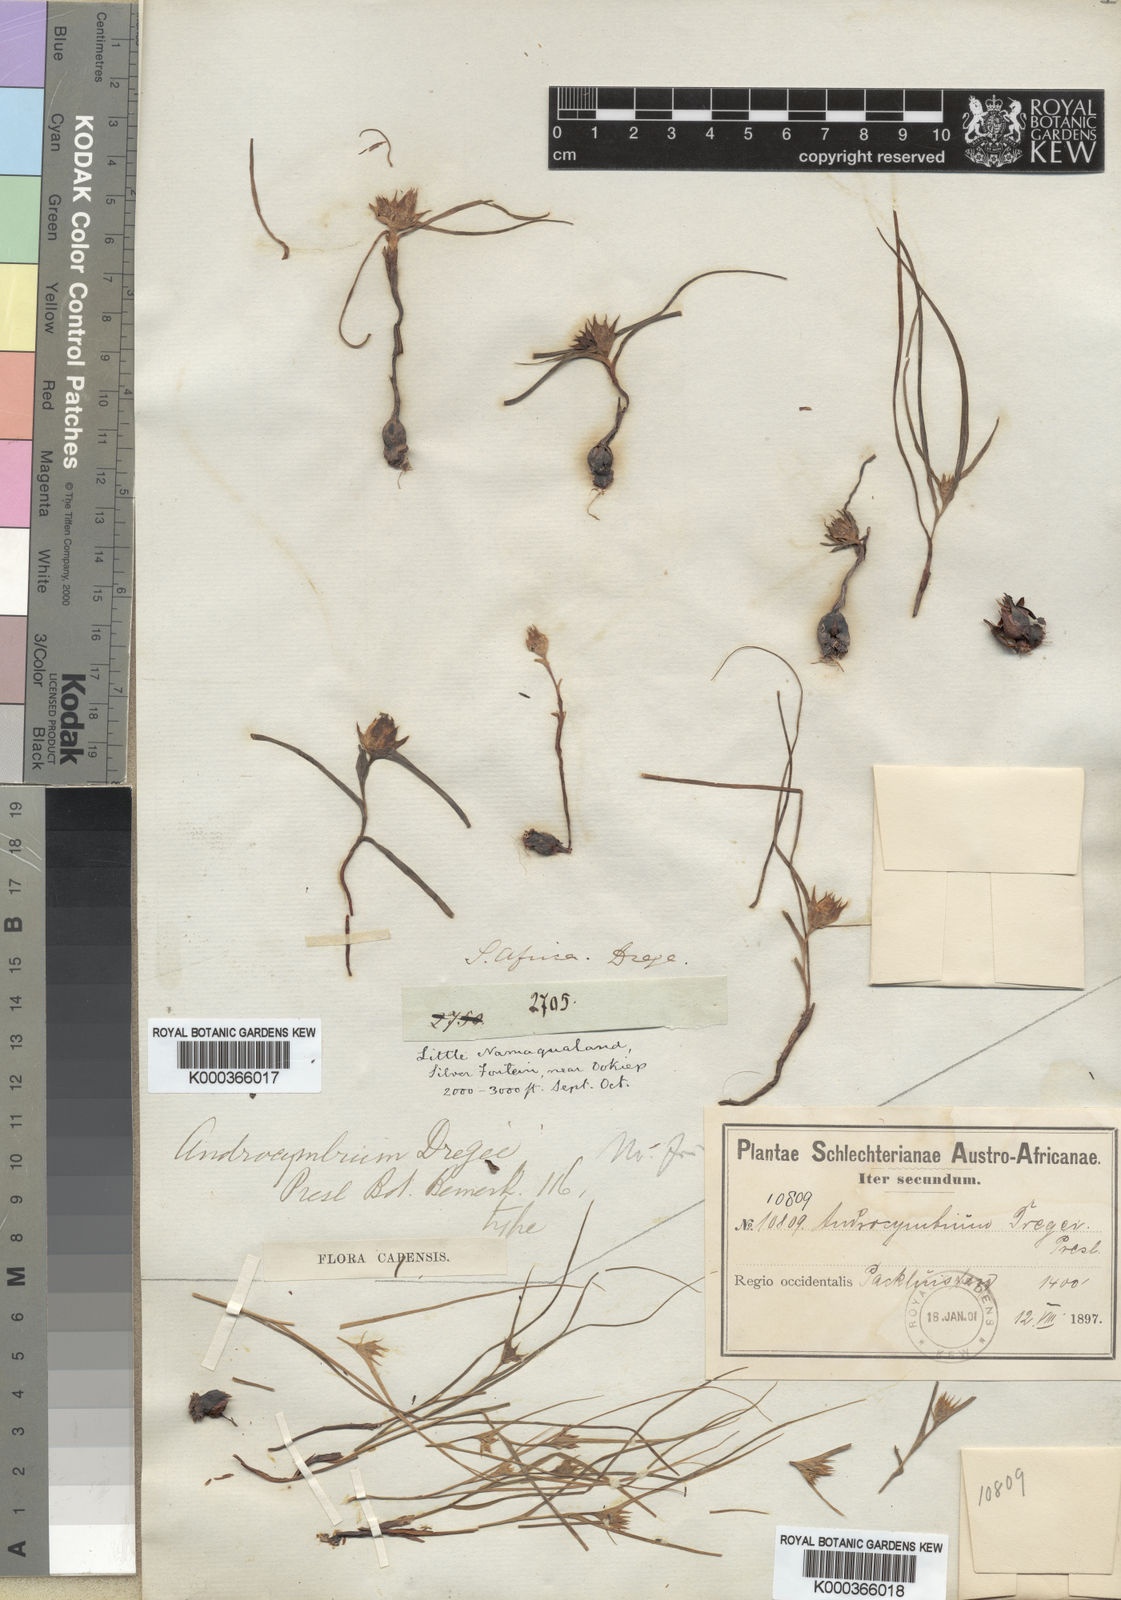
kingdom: Plantae
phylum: Tracheophyta
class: Liliopsida
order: Liliales
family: Colchicaceae
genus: Colchicum
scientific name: Colchicum dregei
